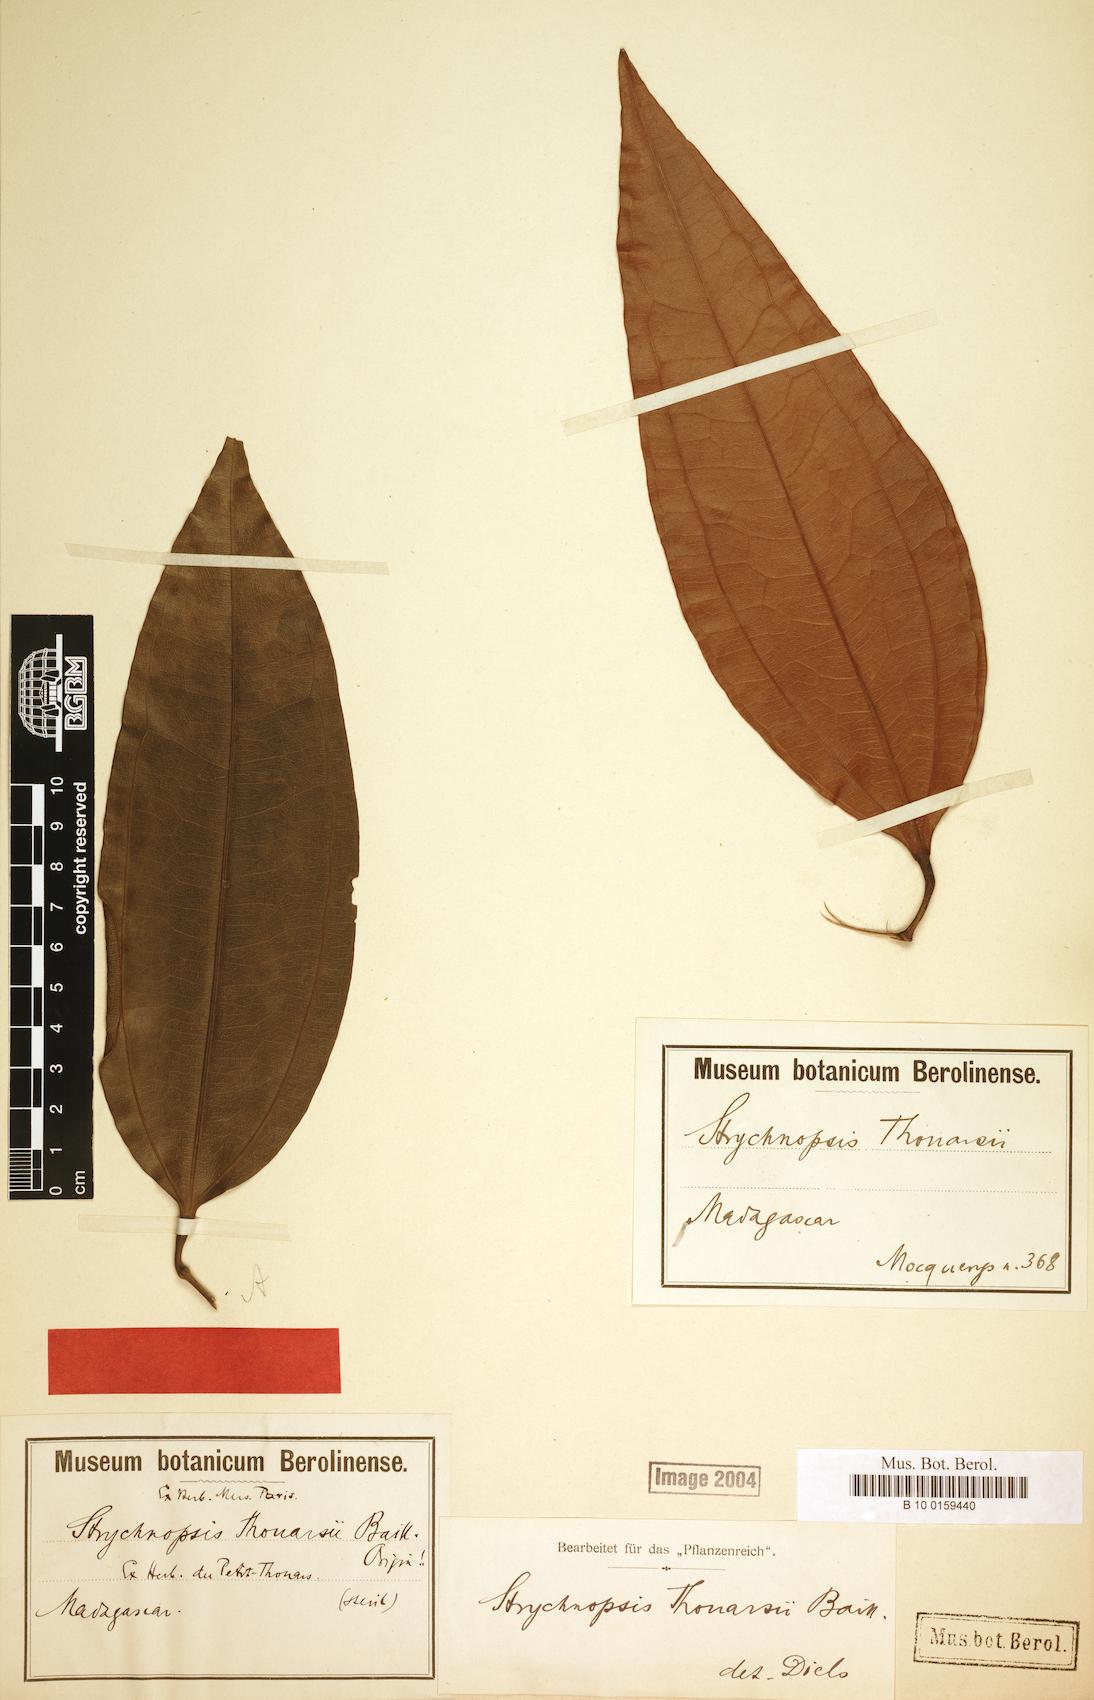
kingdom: Plantae
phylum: Tracheophyta
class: Magnoliopsida
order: Ranunculales
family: Menispermaceae
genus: Strychnopsis
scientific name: Strychnopsis thouarsii
